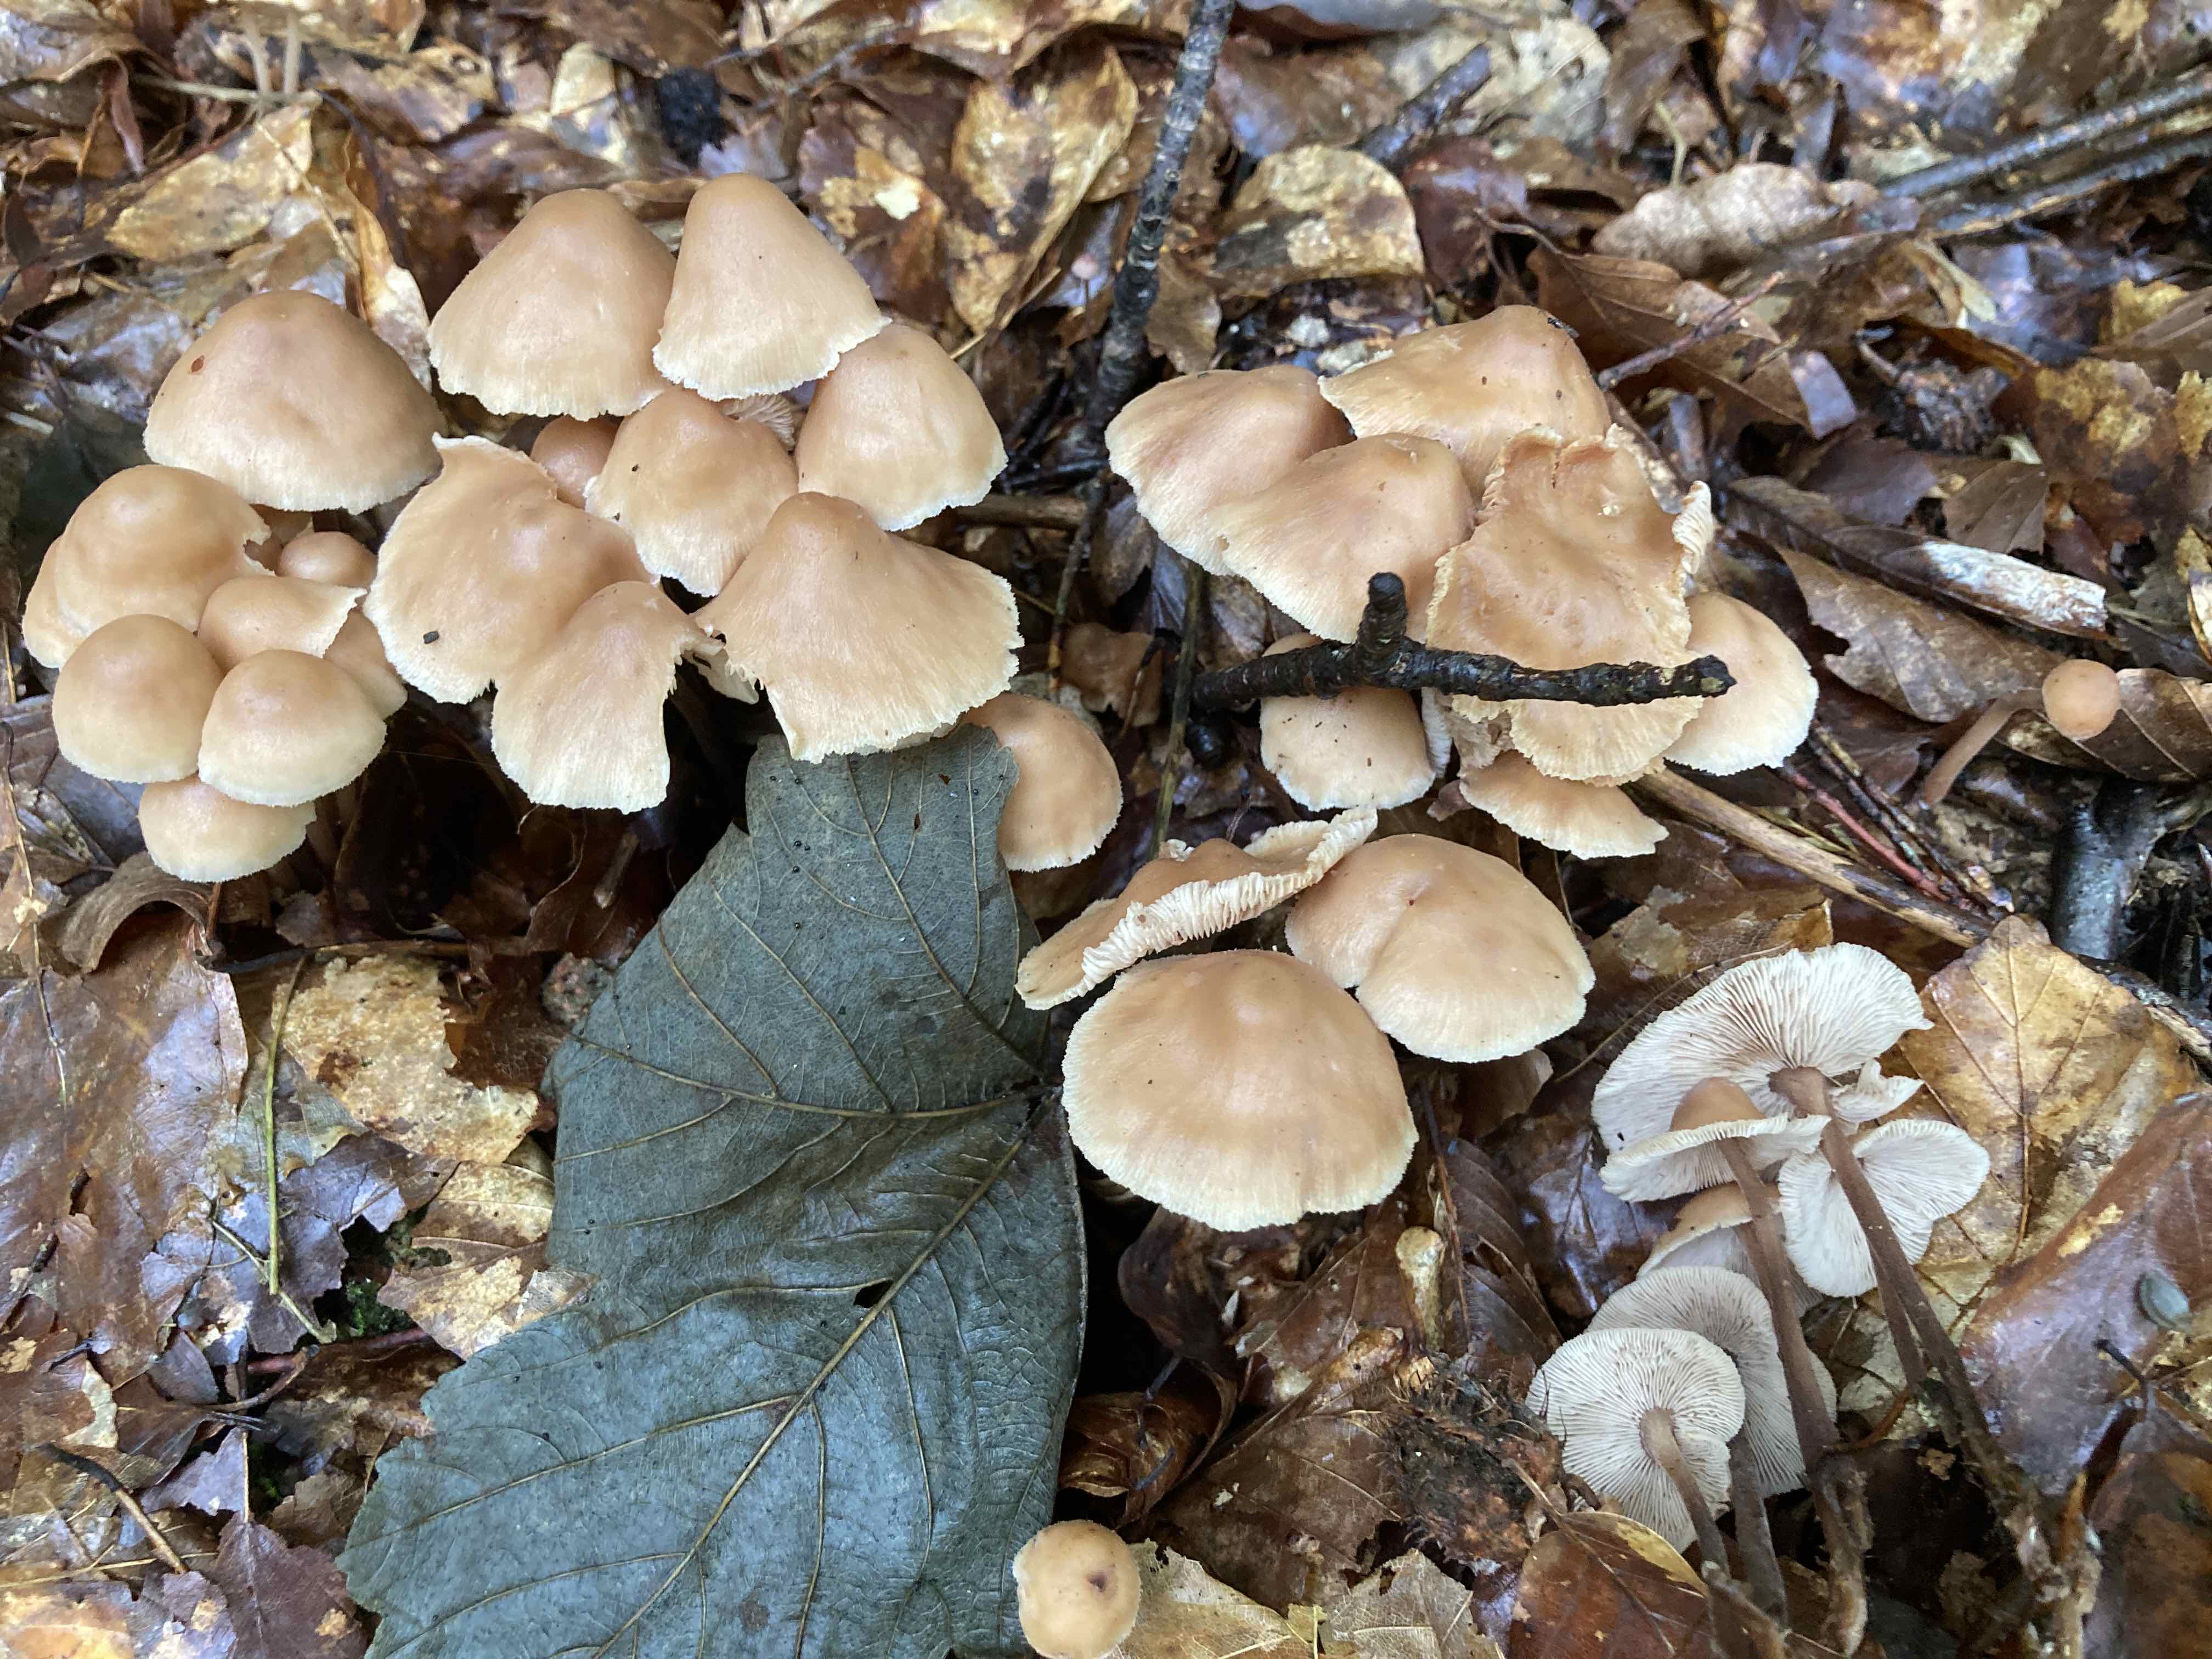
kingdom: Fungi
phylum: Basidiomycota
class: Agaricomycetes
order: Agaricales
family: Omphalotaceae
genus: Collybiopsis
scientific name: Collybiopsis confluens
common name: knippe-fladhat
